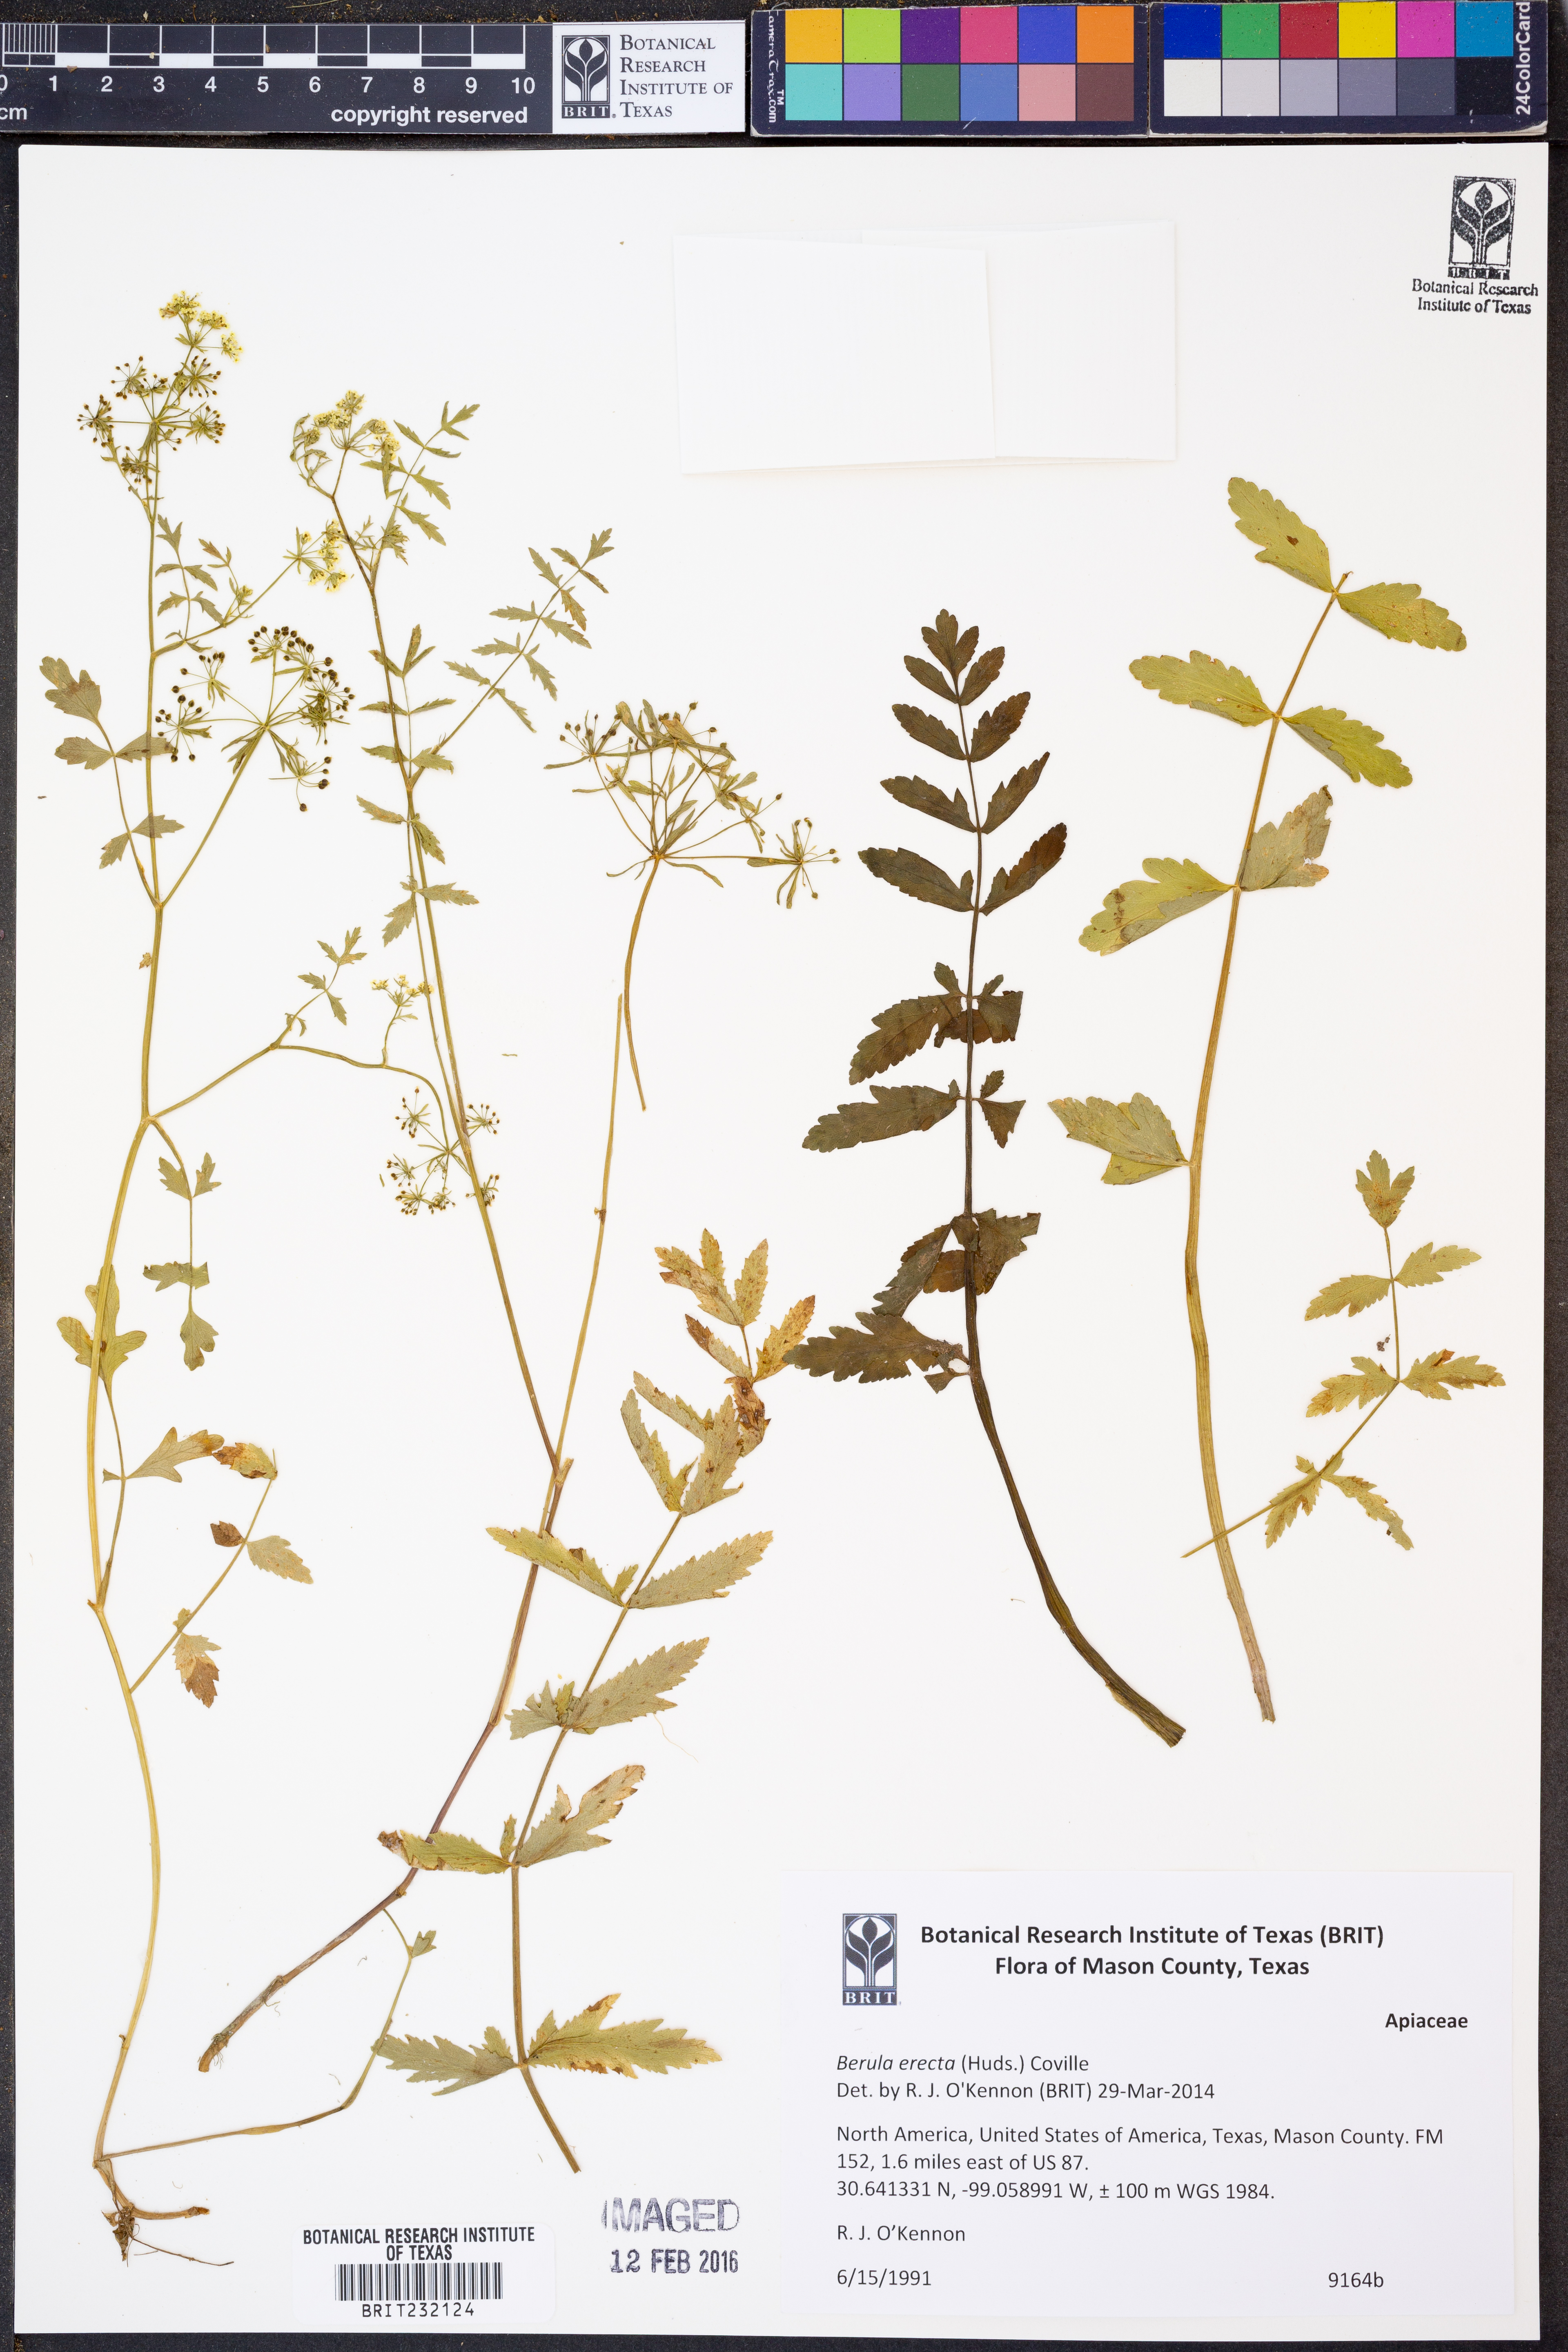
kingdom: Plantae
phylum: Tracheophyta
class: Magnoliopsida
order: Apiales
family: Apiaceae
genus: Berula
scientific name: Berula erecta
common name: Lesser water-parsnip
